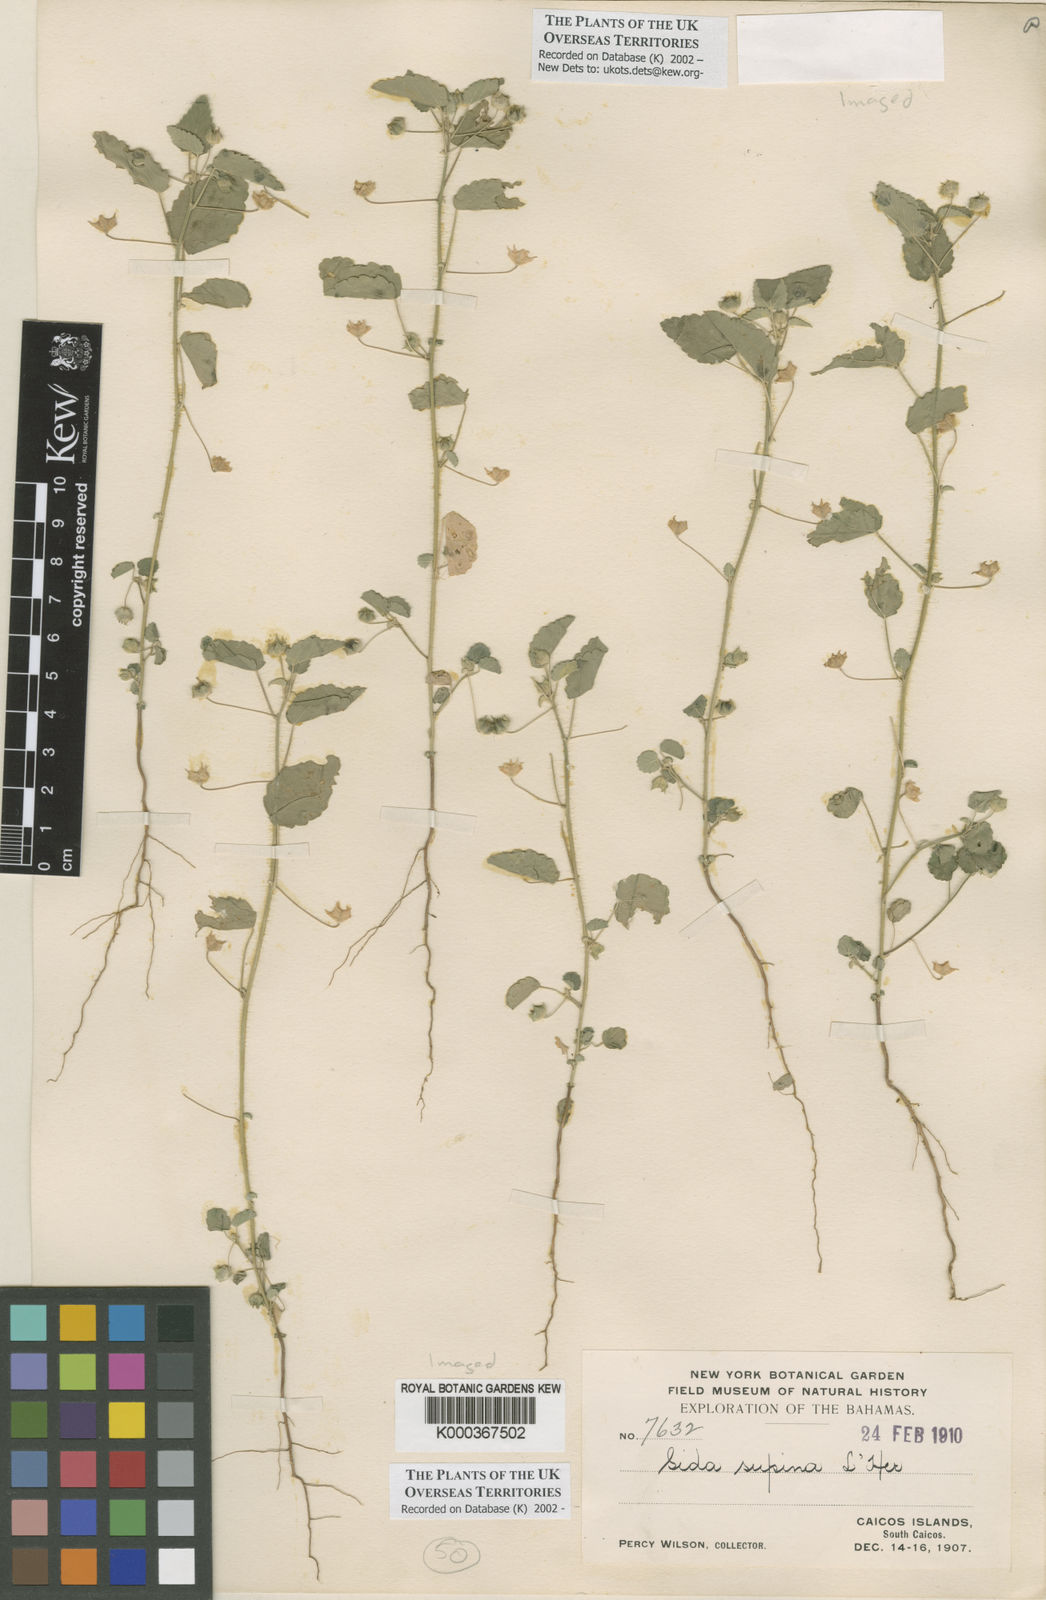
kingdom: Plantae
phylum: Tracheophyta
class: Liliopsida
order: Poales
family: Poaceae
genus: Anthoxanthum
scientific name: Anthoxanthum tongo
